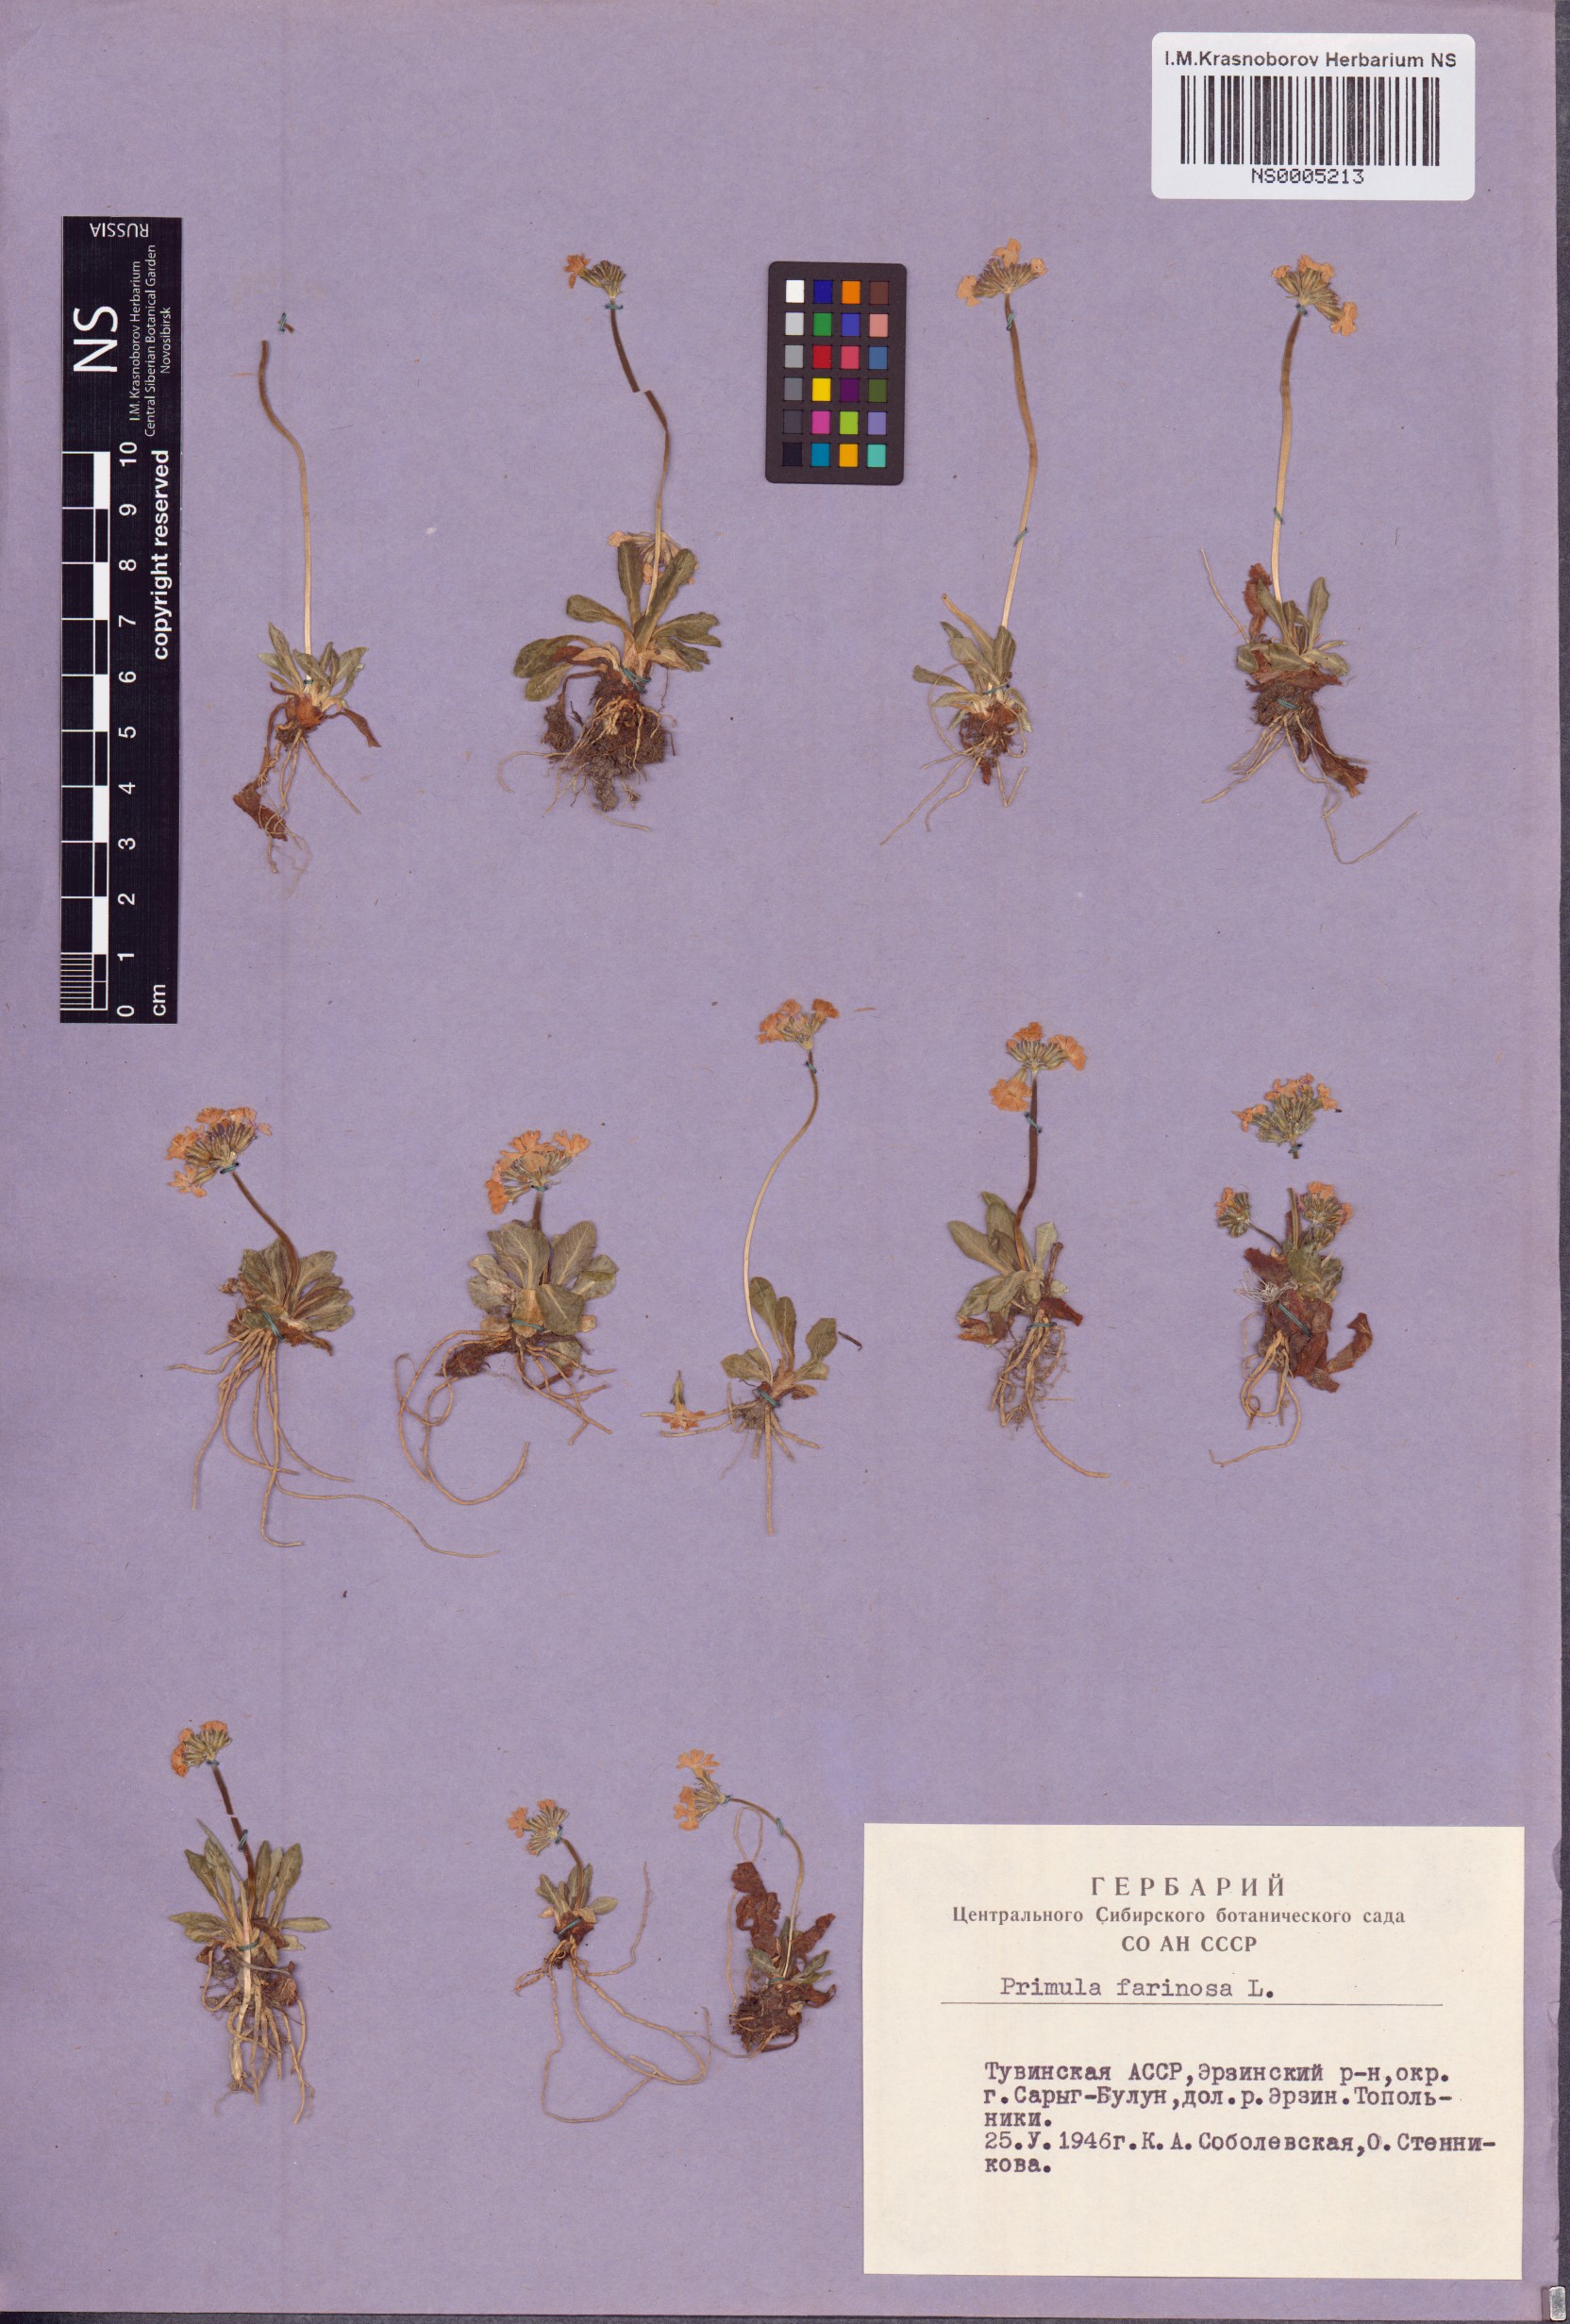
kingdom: Plantae
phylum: Tracheophyta
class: Magnoliopsida
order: Ericales
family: Primulaceae
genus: Primula
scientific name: Primula farinosa
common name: Bird's-eye primrose
